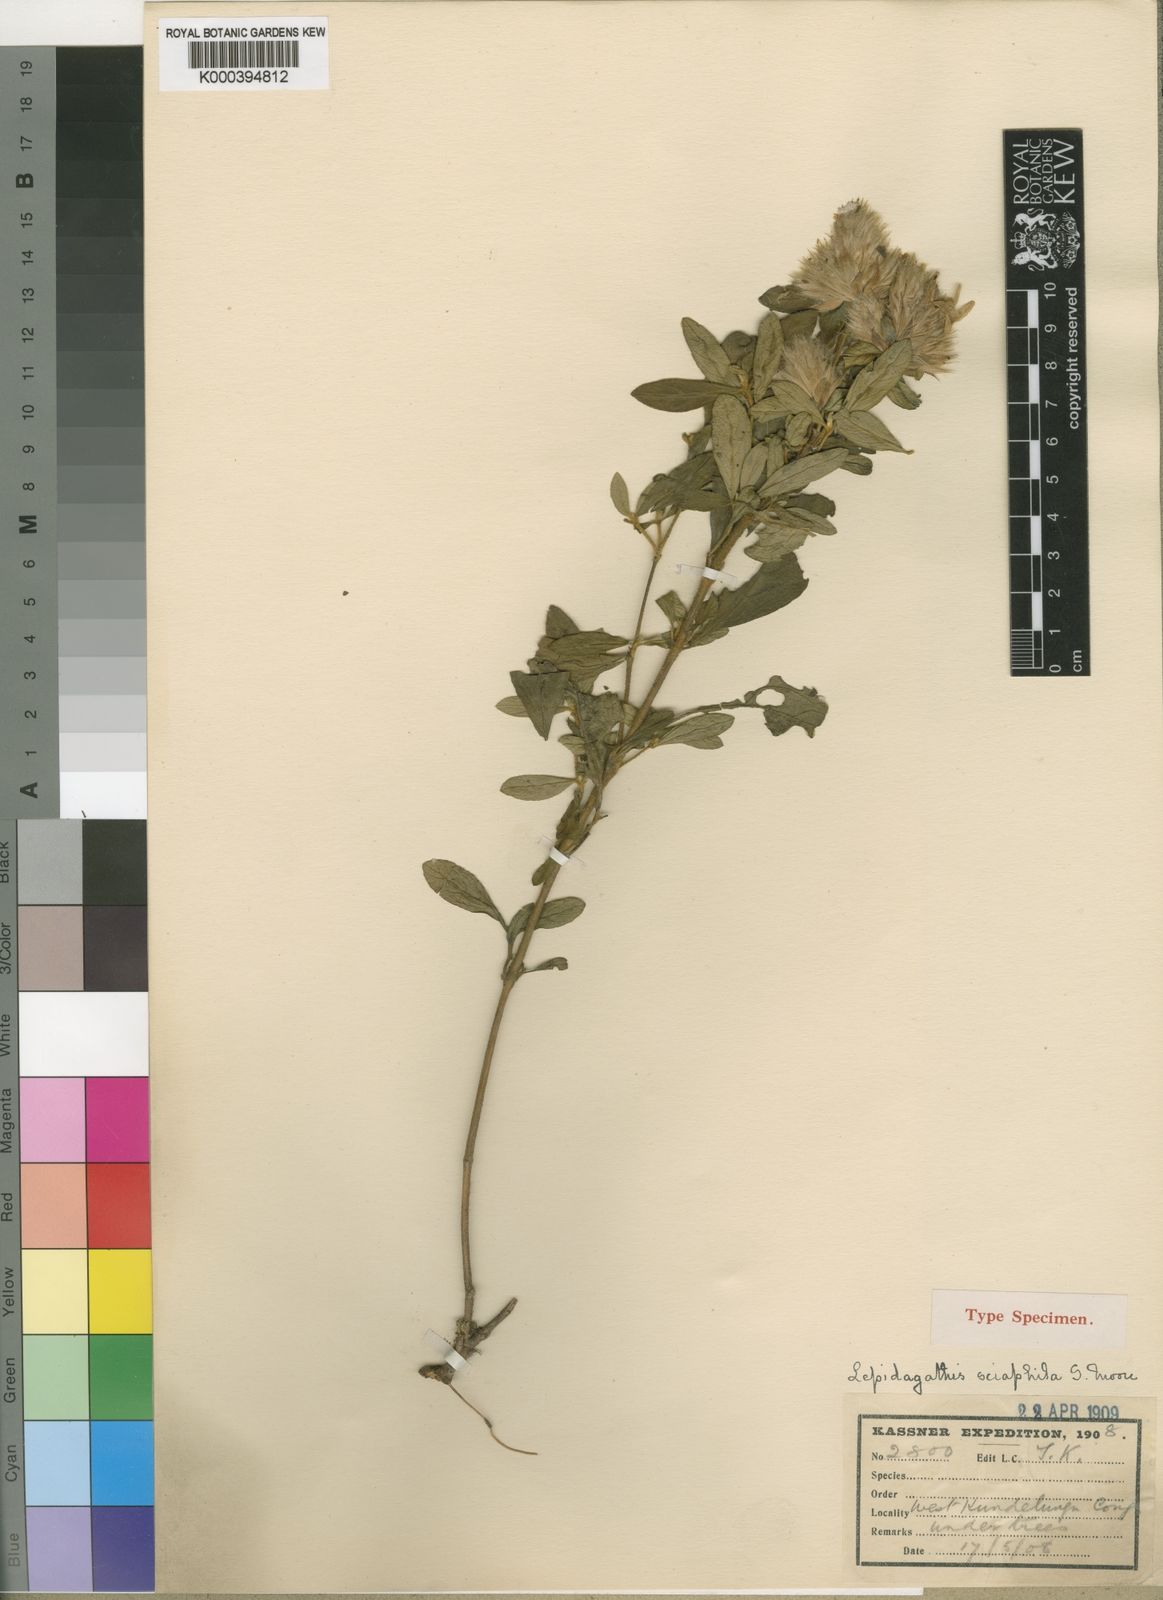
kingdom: Plantae
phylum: Tracheophyta
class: Magnoliopsida
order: Lamiales
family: Acanthaceae
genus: Lepidagathis
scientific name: Lepidagathis scariosa
